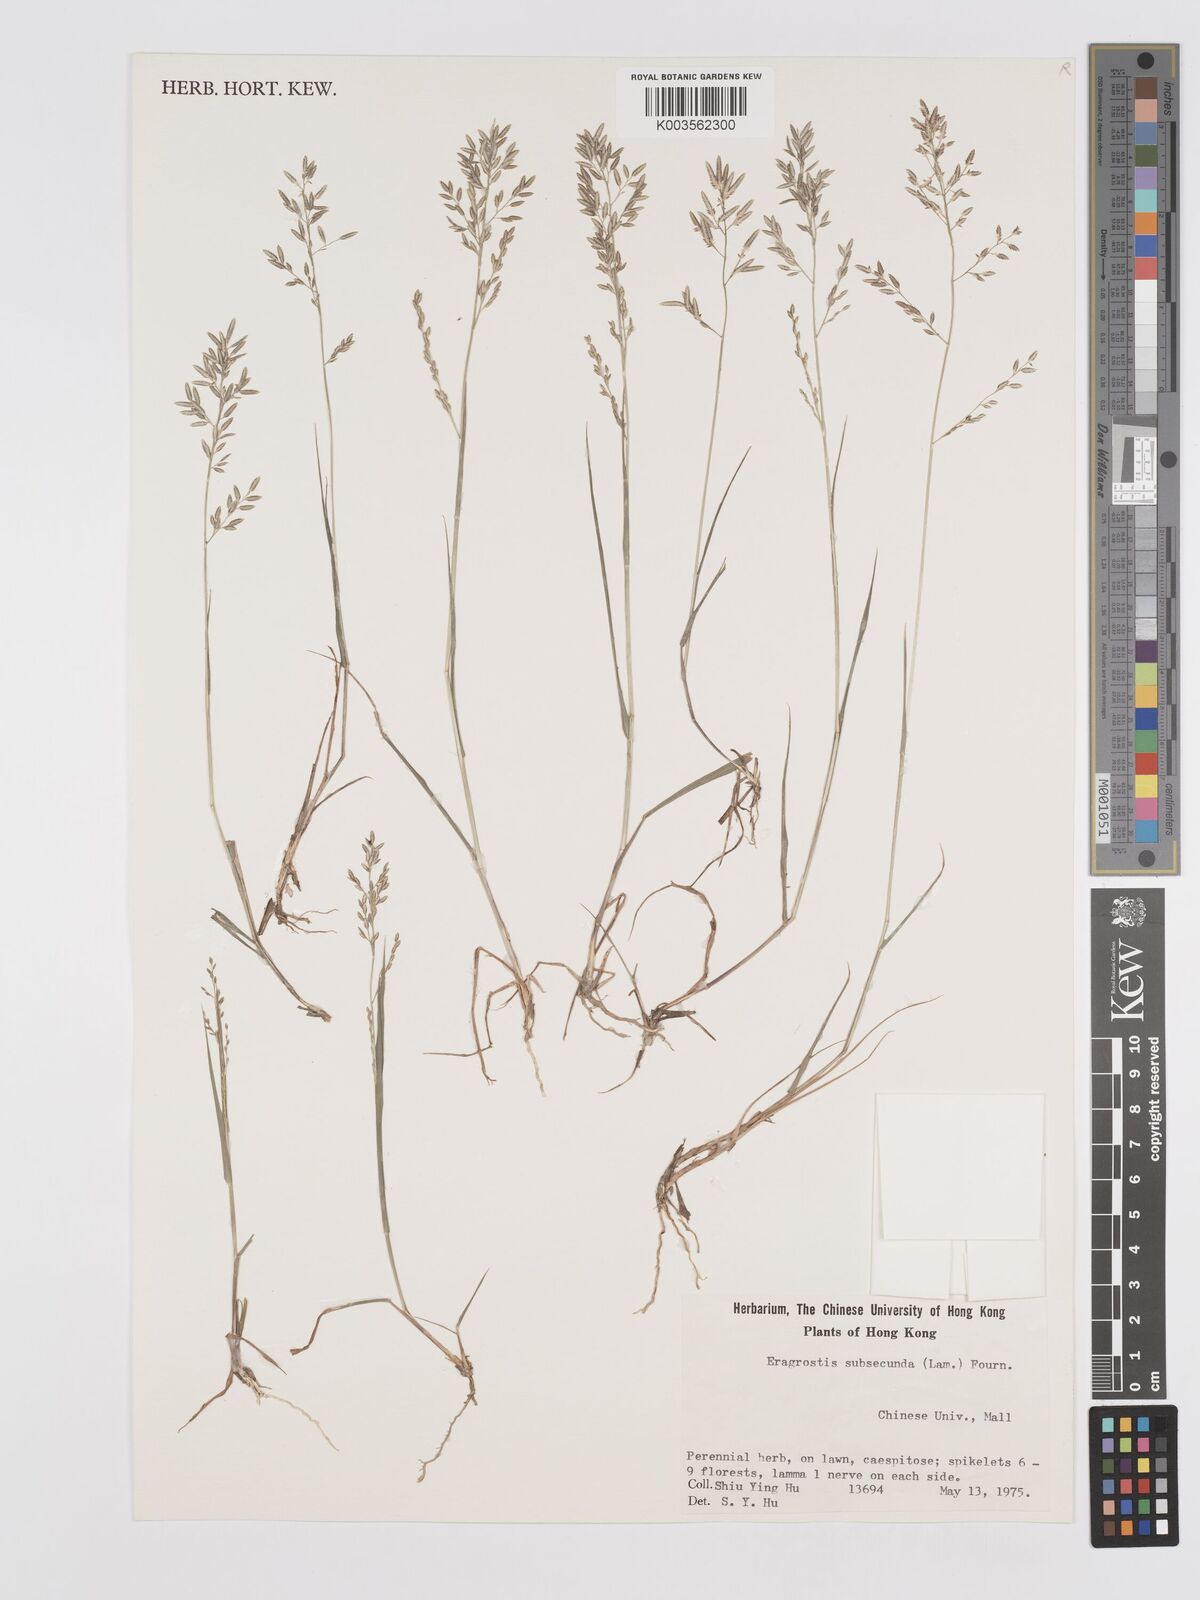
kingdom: Plantae
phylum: Tracheophyta
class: Liliopsida
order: Poales
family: Poaceae
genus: Eragrostis
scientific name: Eragrostis subsecunda
